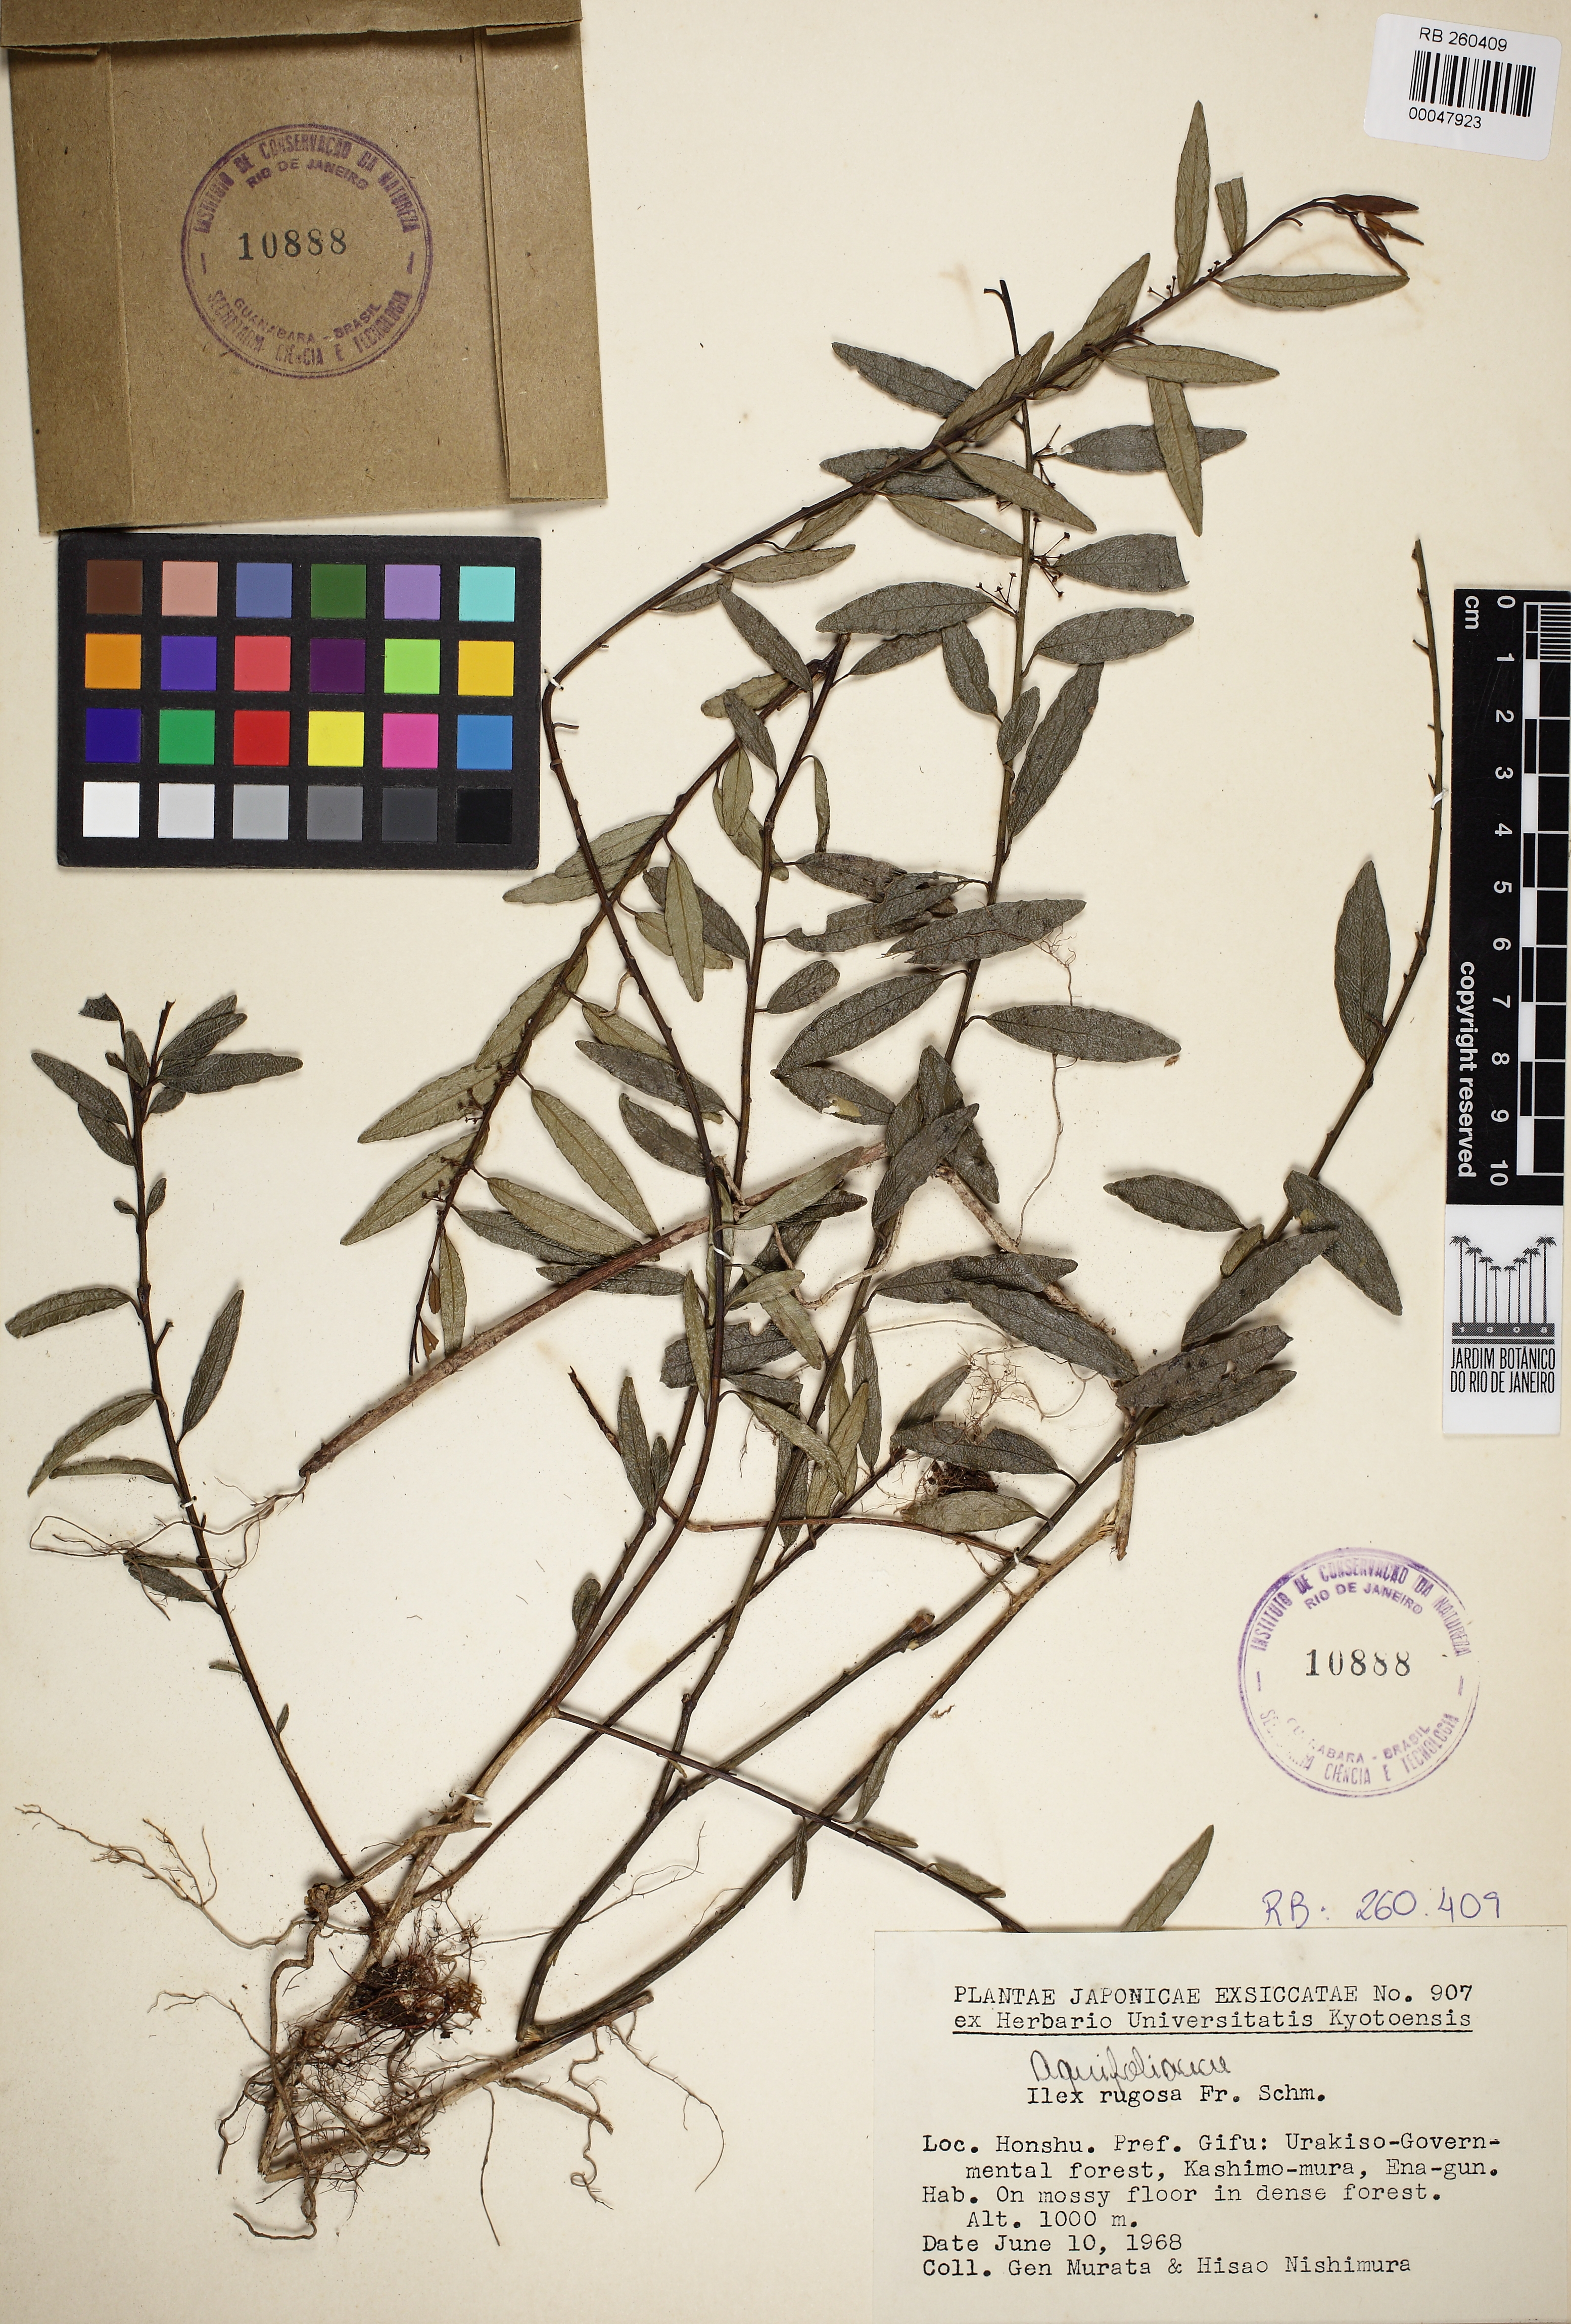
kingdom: Plantae
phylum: Tracheophyta
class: Magnoliopsida
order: Aquifoliales
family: Aquifoliaceae
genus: Ilex
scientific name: Ilex rugosa
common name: Tsuru holly
